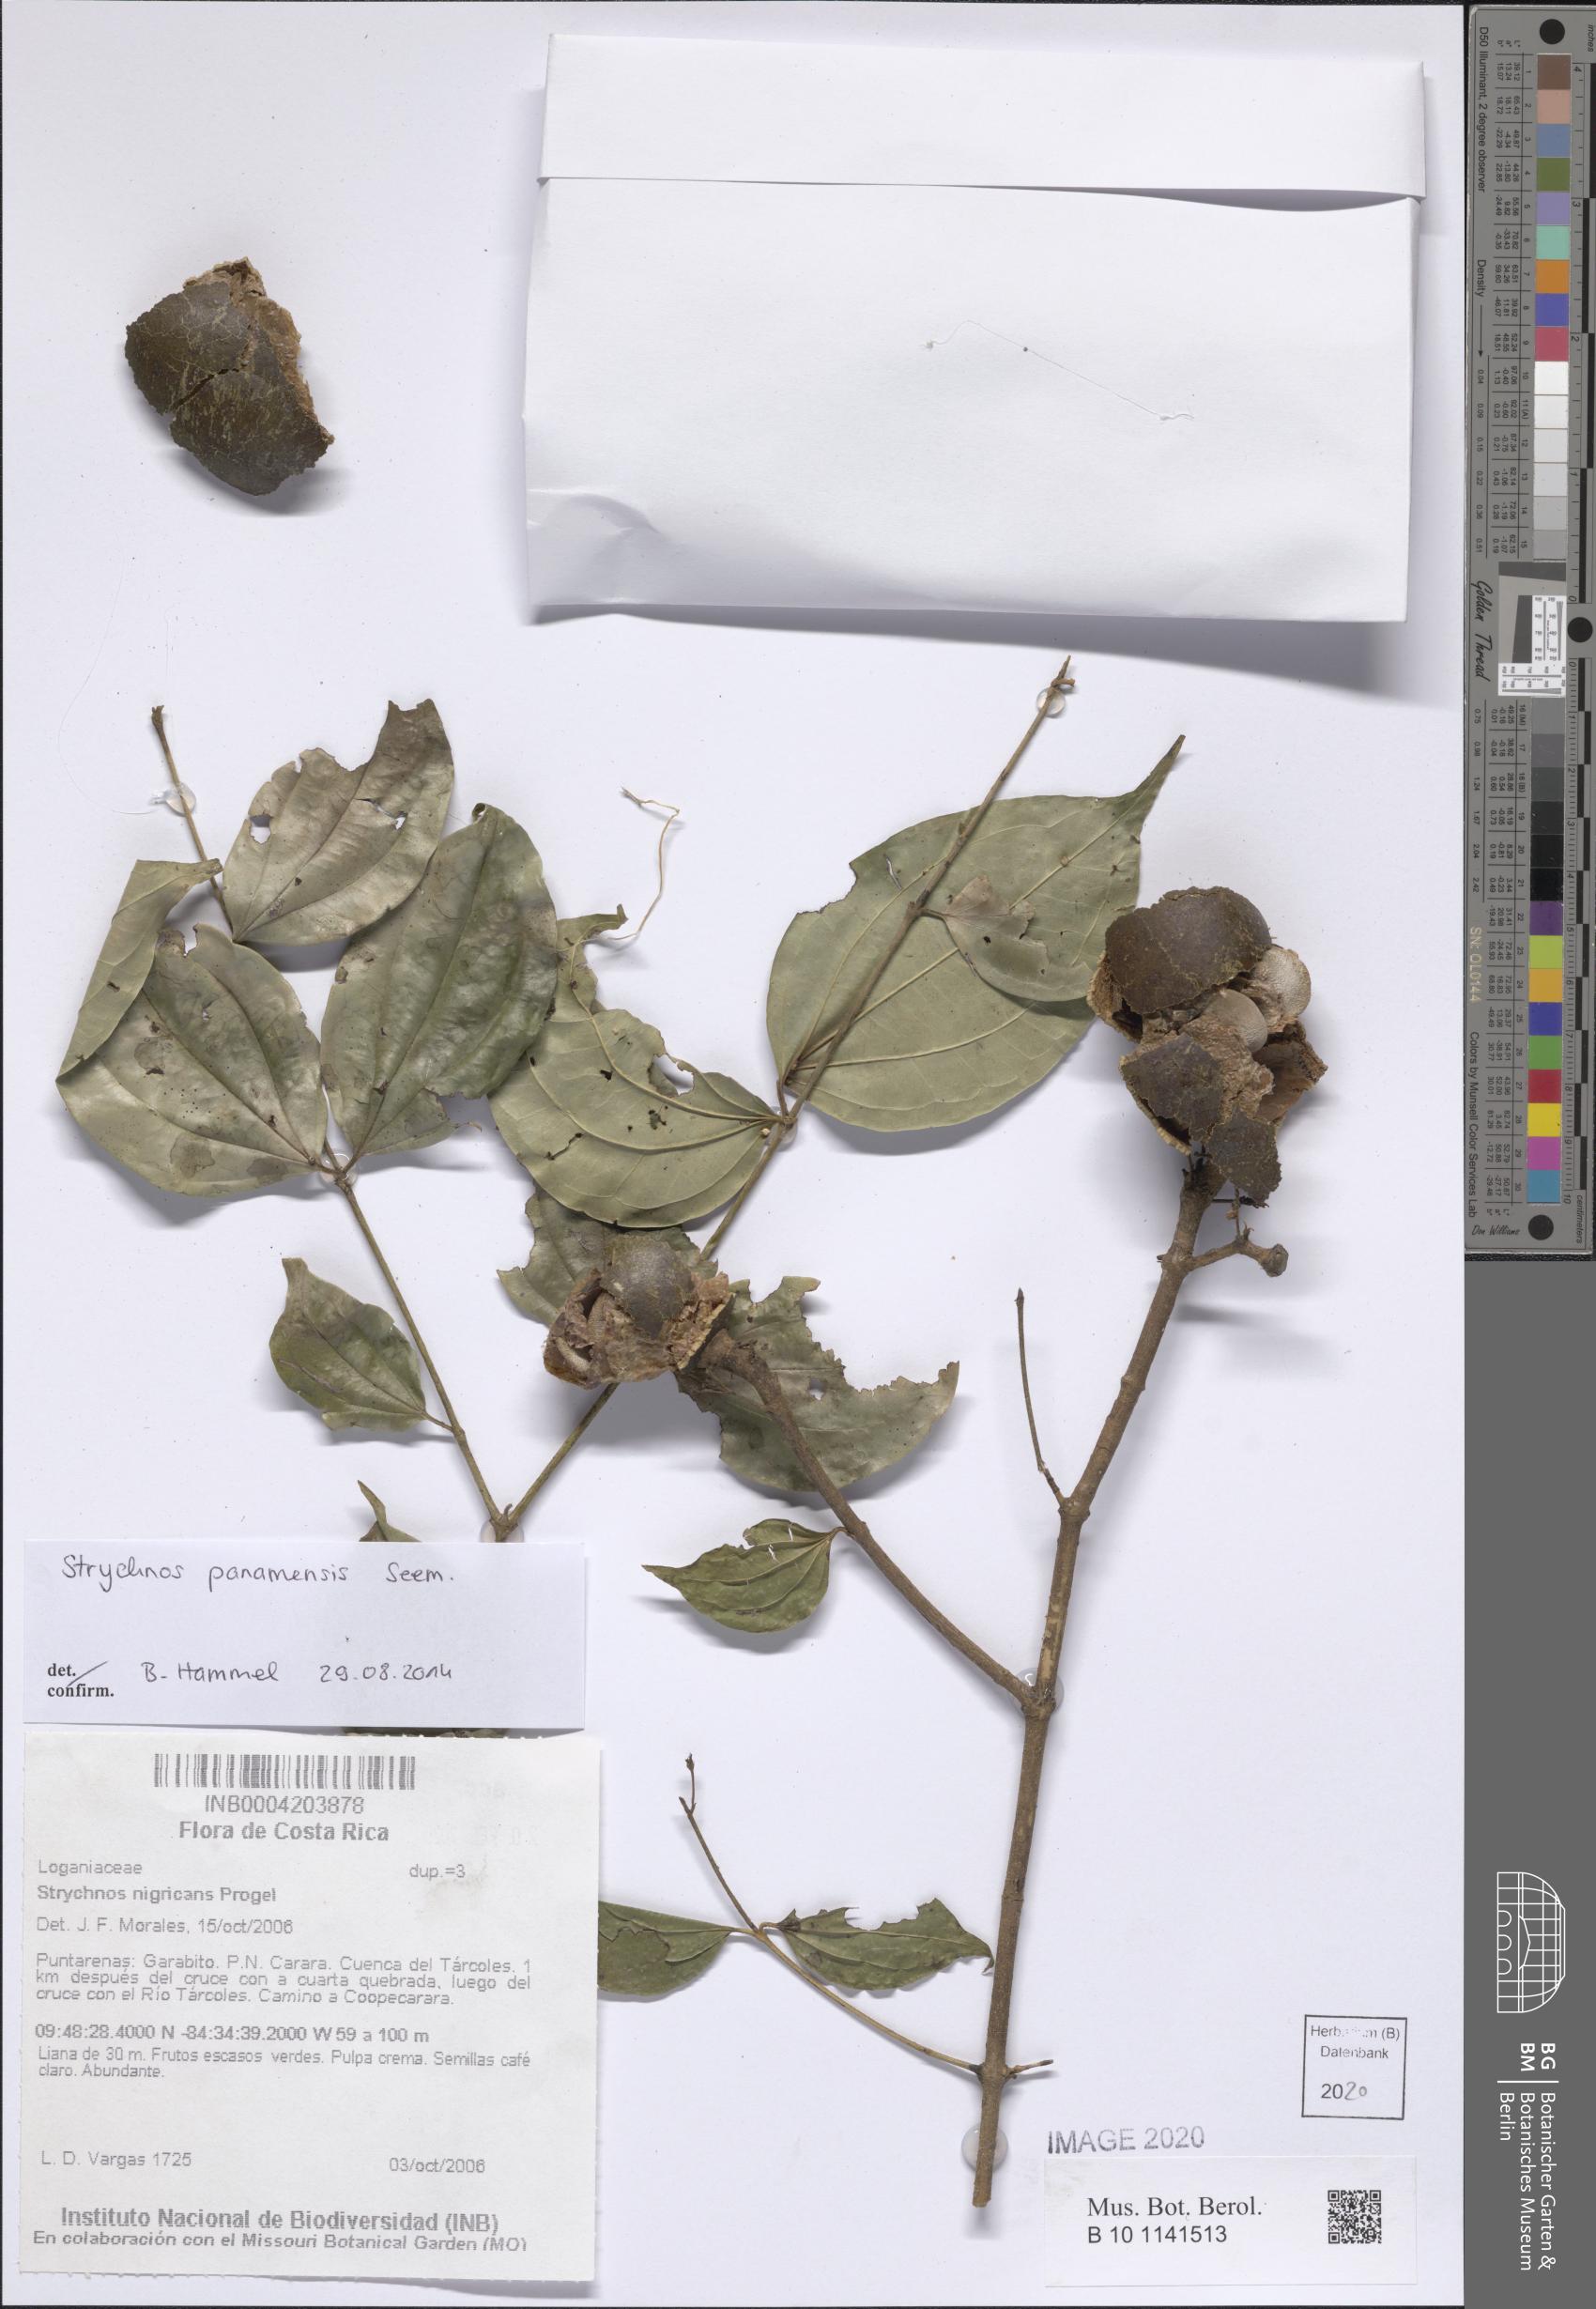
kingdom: Plantae
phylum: Tracheophyta
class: Magnoliopsida
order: Gentianales
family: Loganiaceae
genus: Strychnos
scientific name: Strychnos panamensis
